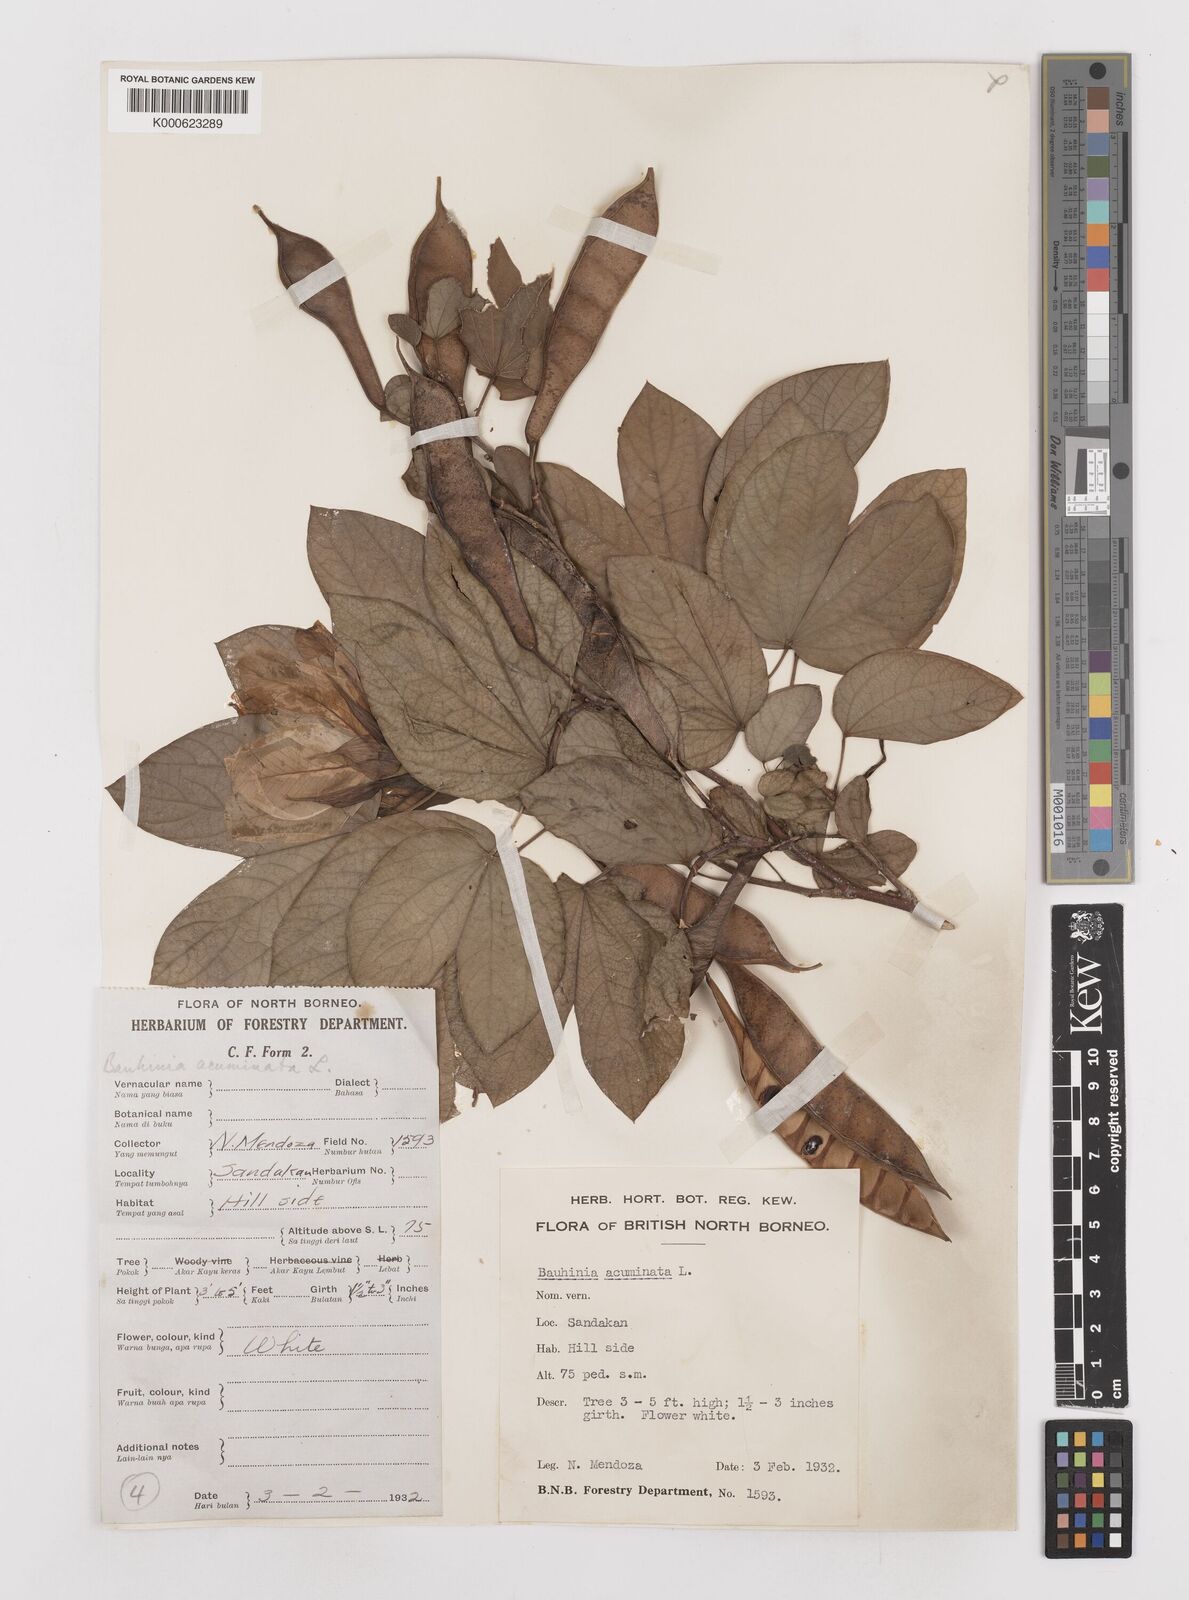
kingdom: Plantae
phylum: Tracheophyta
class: Magnoliopsida
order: Fabales
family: Fabaceae
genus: Bauhinia
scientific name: Bauhinia acuminata
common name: Dwarf white bauhinia
